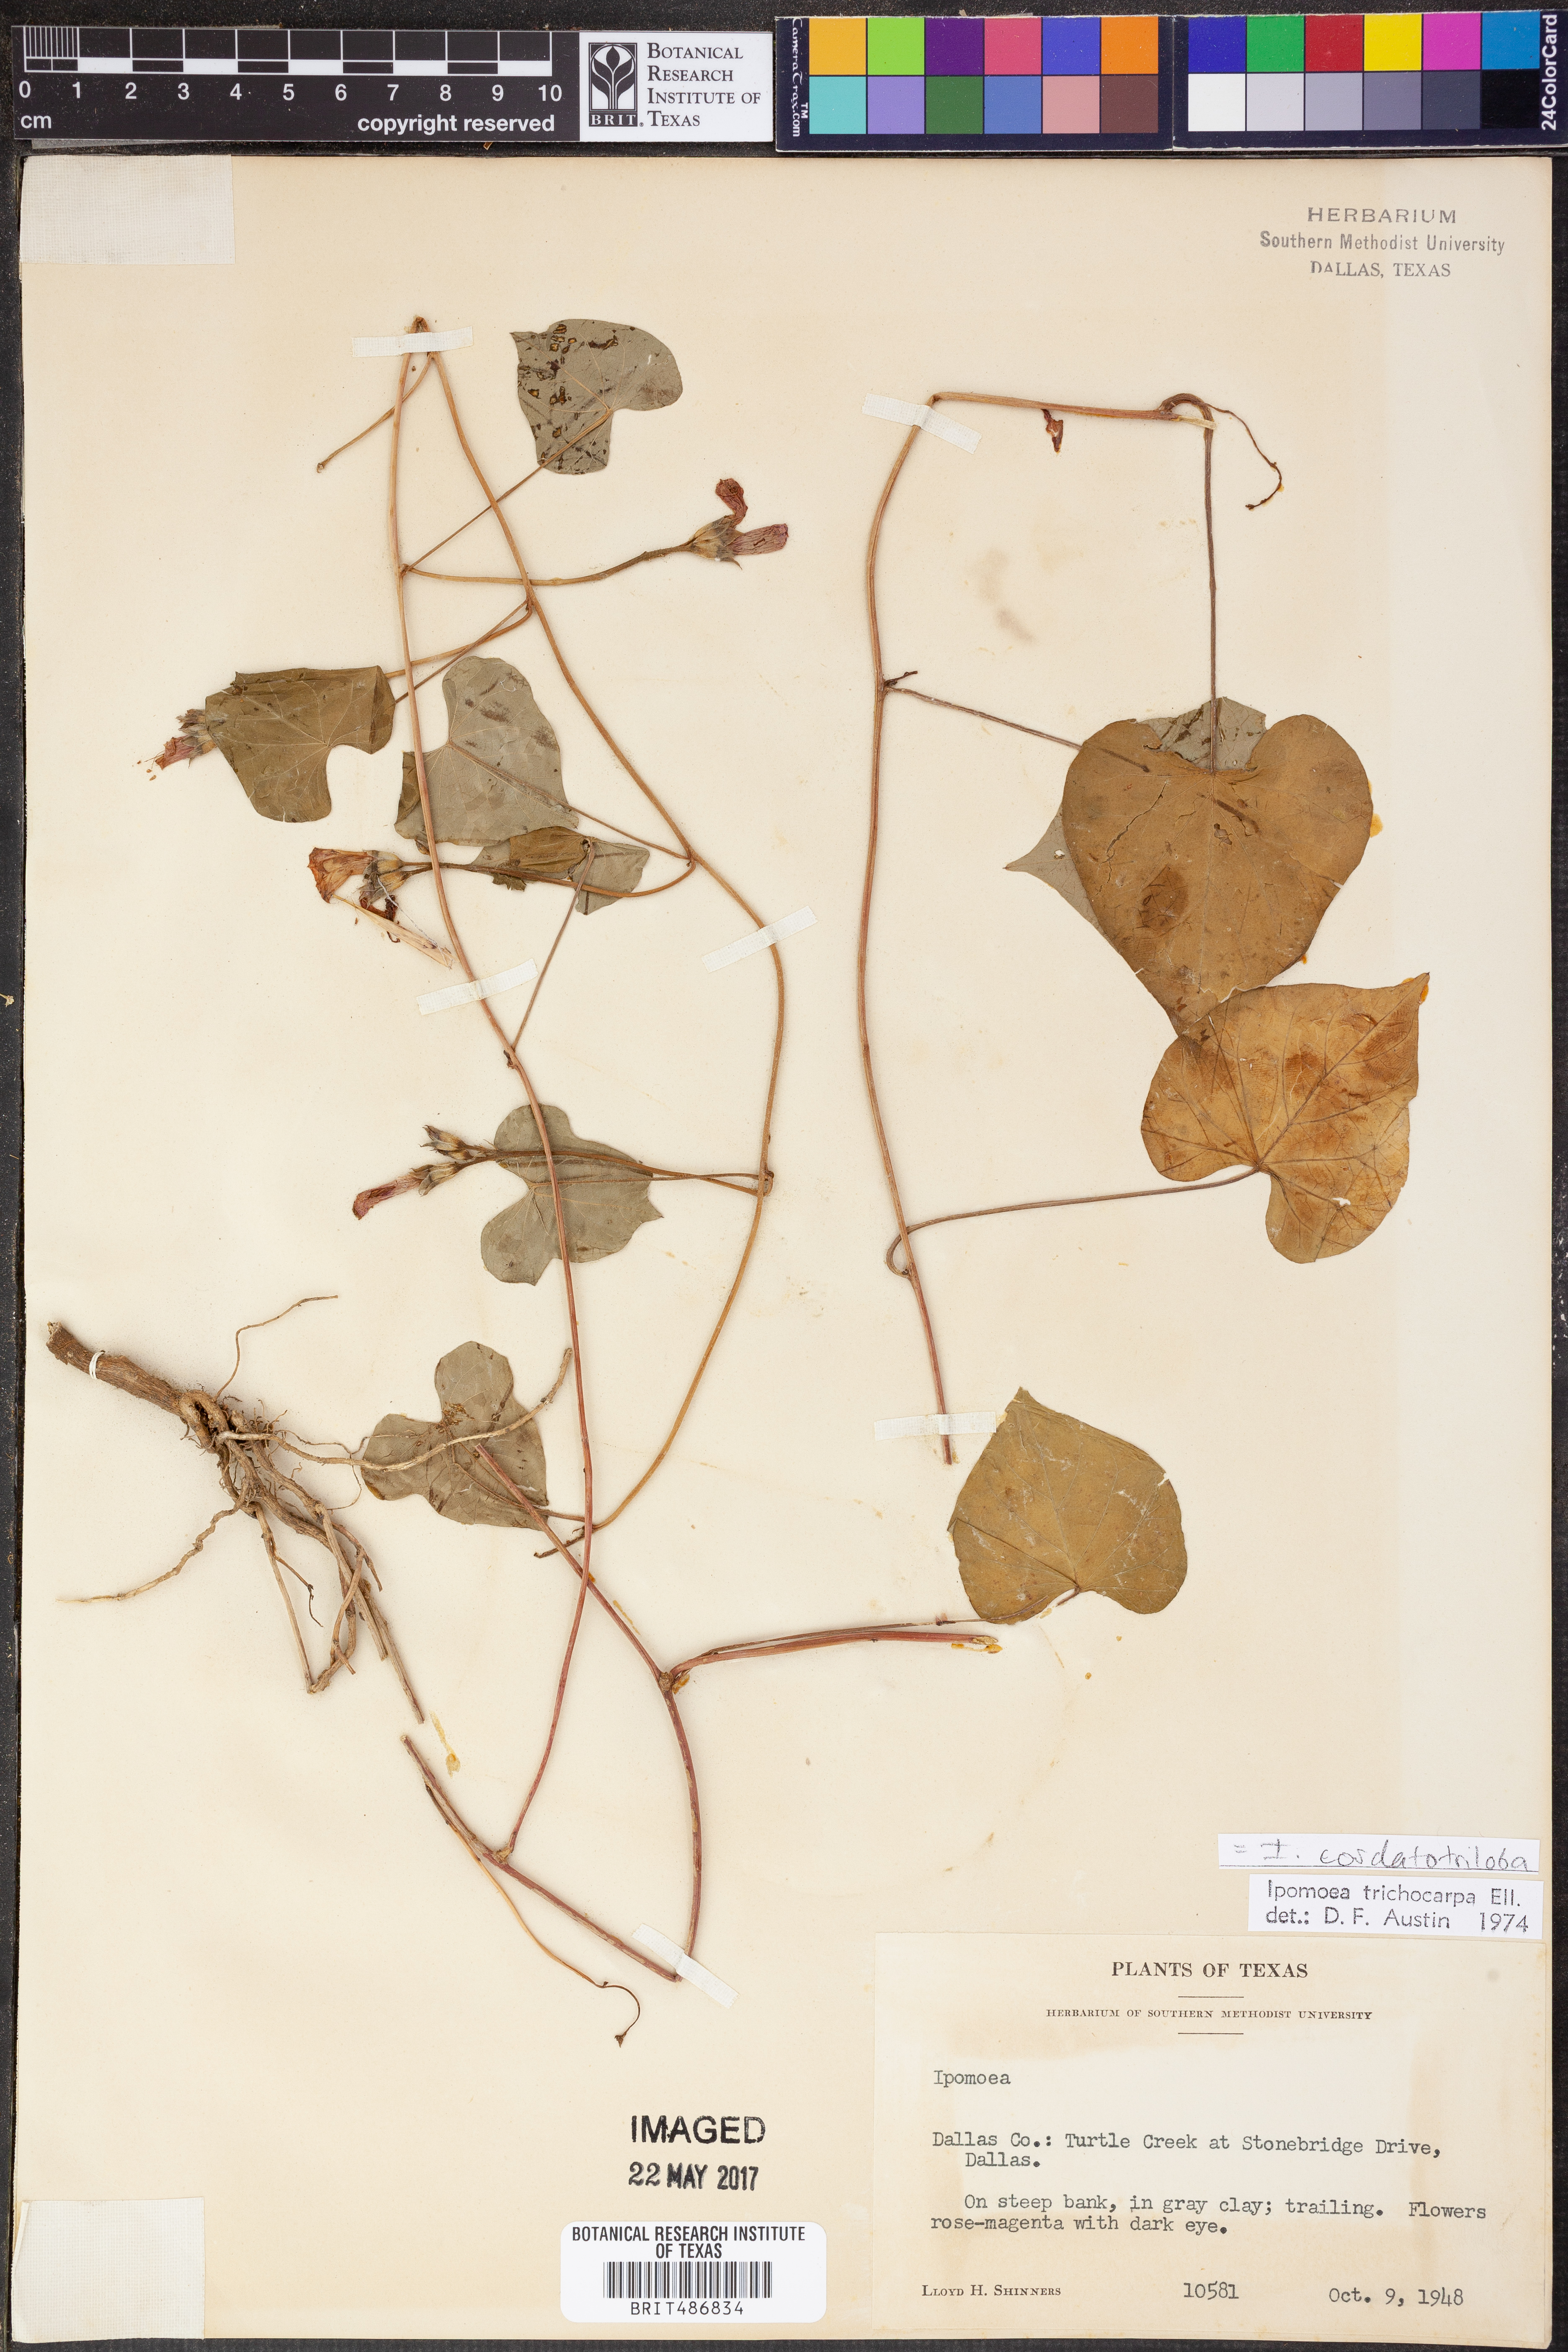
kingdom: Plantae
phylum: Tracheophyta
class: Magnoliopsida
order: Solanales
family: Convolvulaceae
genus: Ipomoea
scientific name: Ipomoea cordatotriloba
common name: Cotton morning glory
